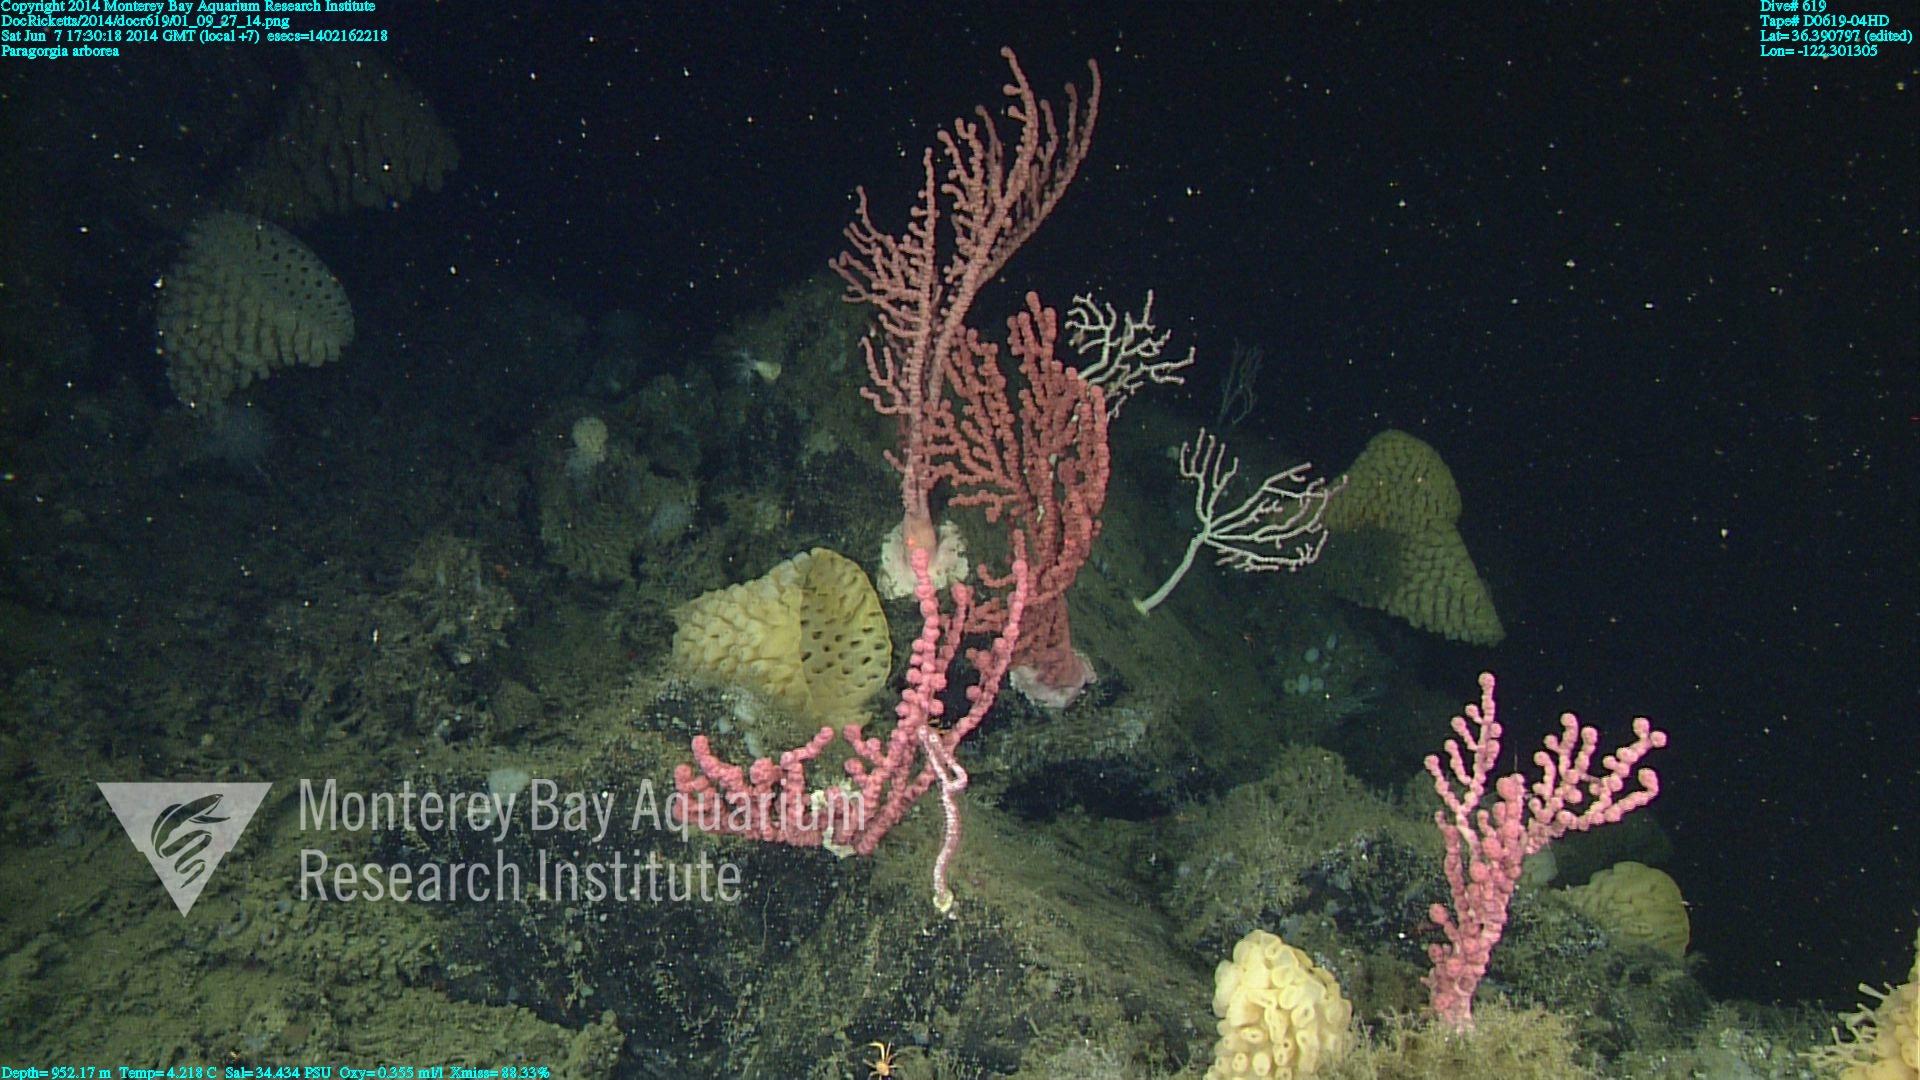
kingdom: Animalia
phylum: Cnidaria
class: Anthozoa
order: Scleralcyonacea
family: Coralliidae
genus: Paragorgia
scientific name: Paragorgia arborea
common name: Bubble gum coral
